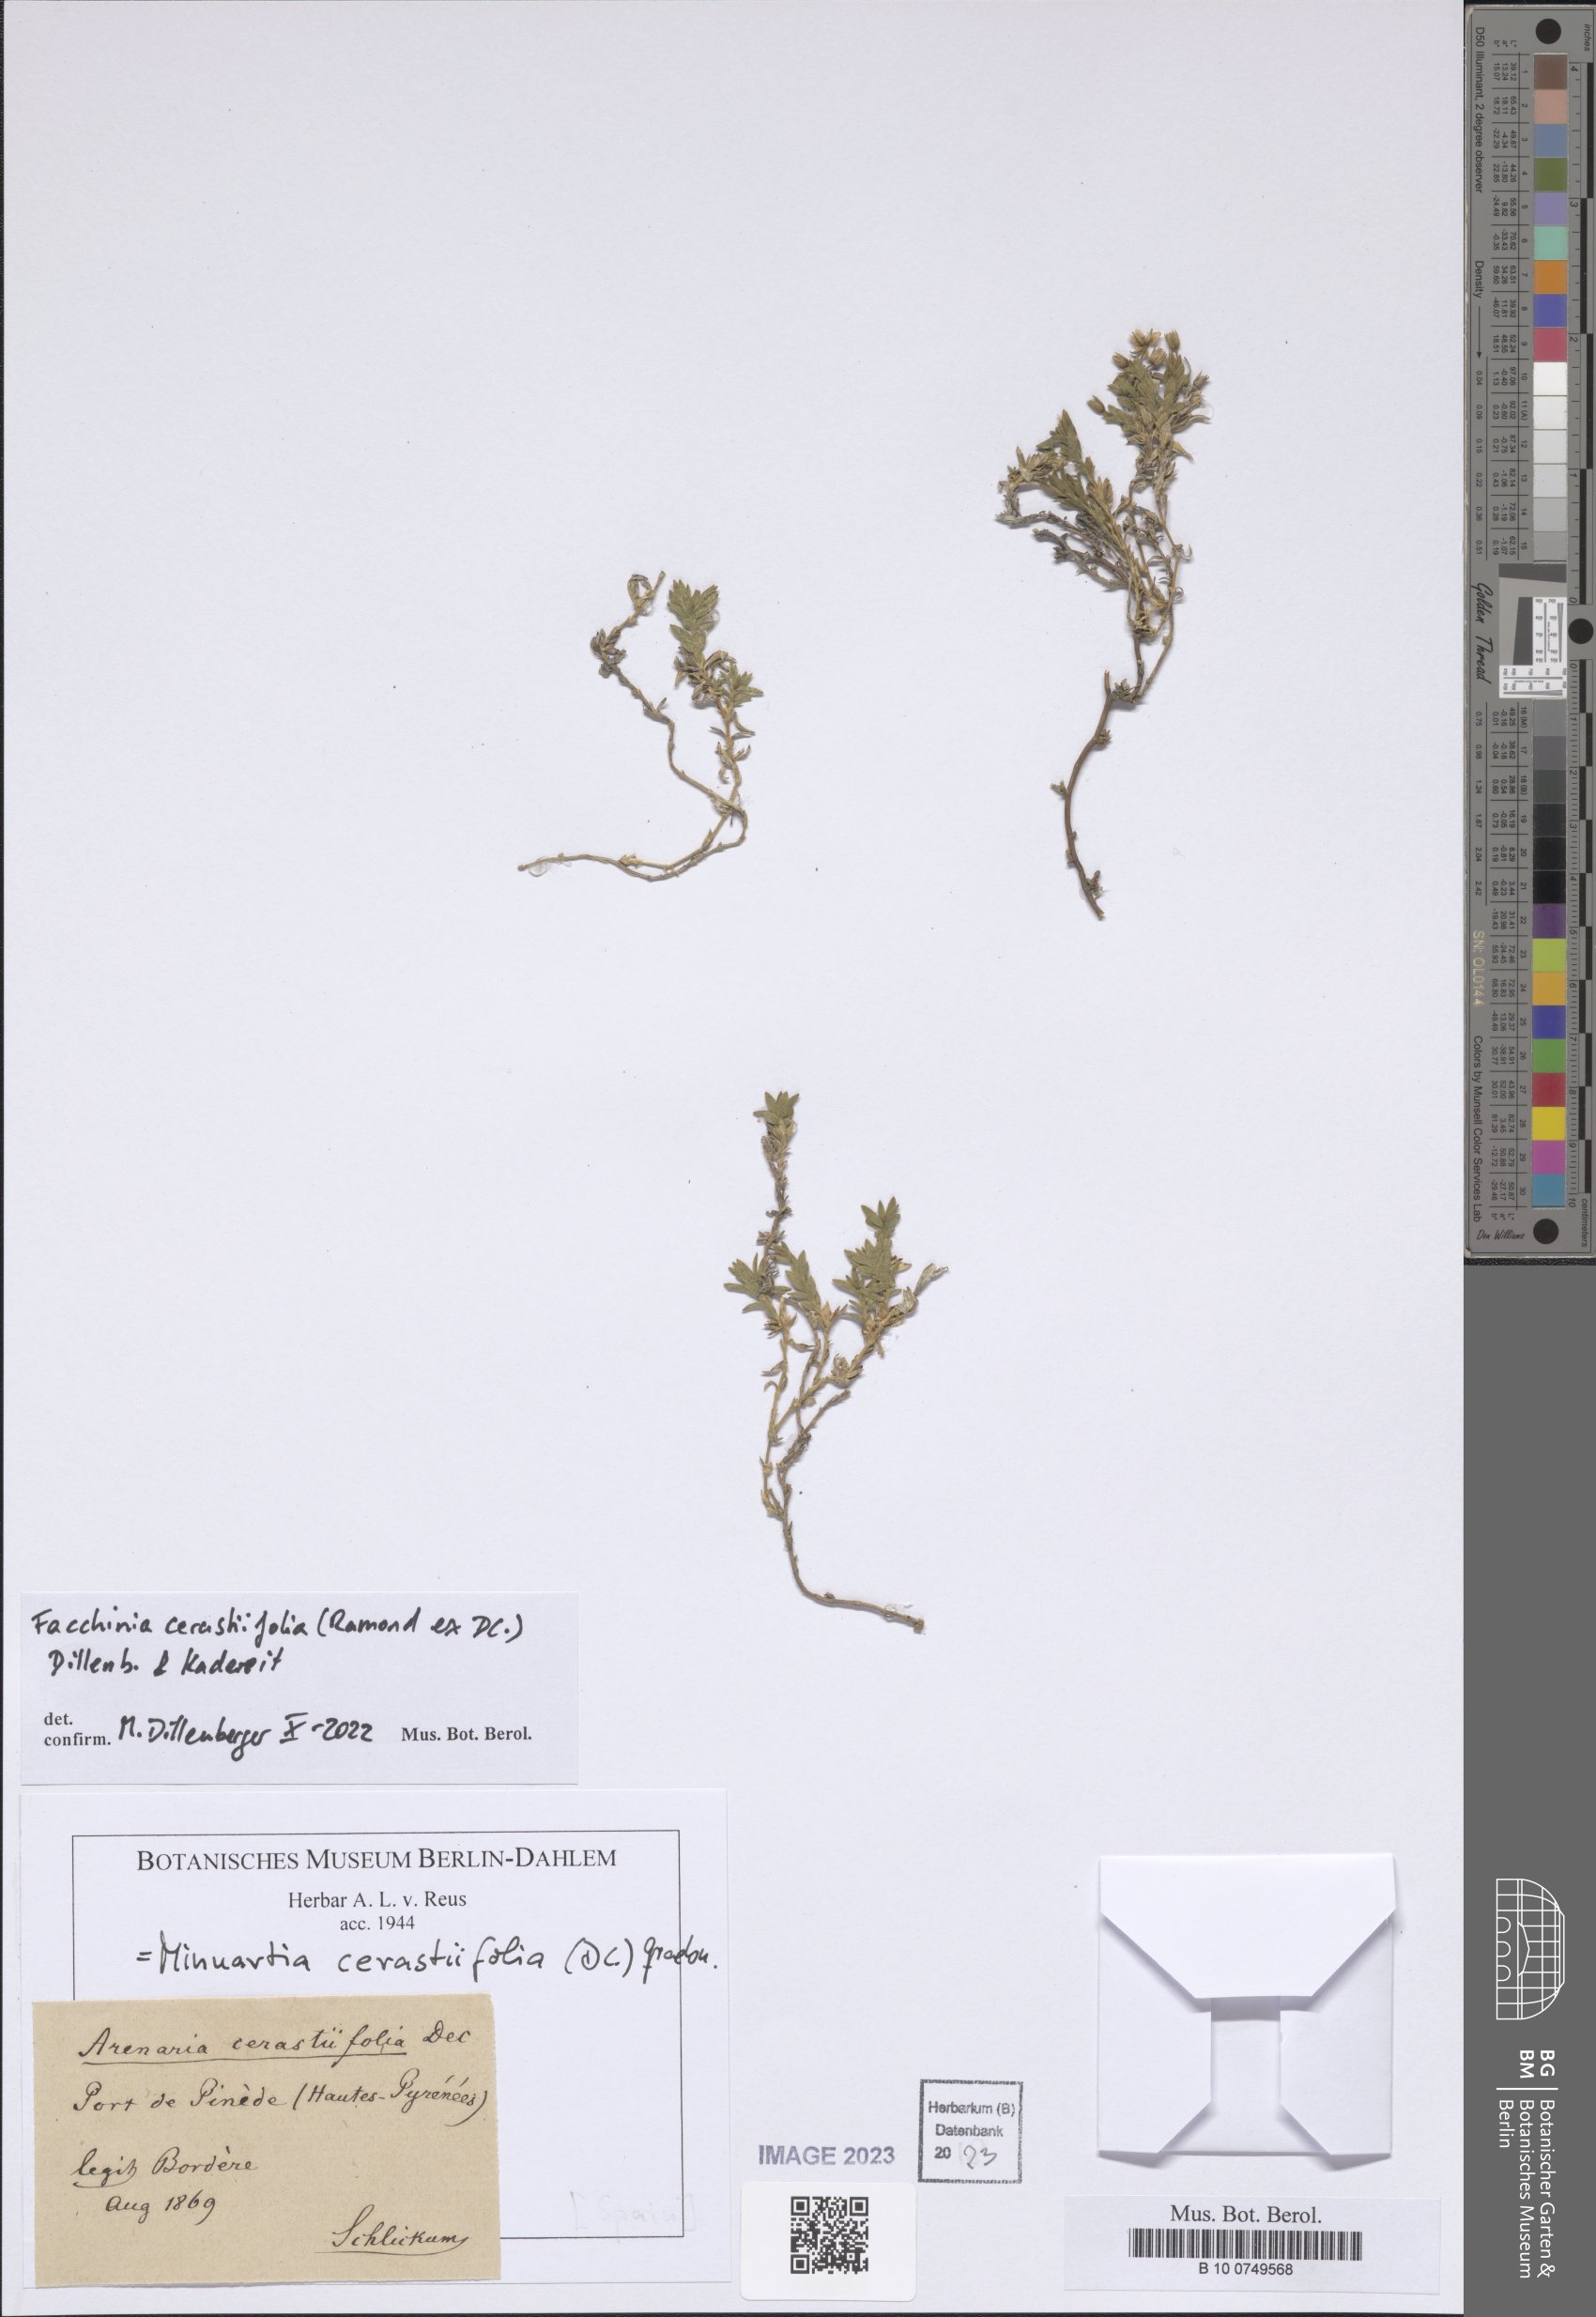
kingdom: Plantae
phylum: Tracheophyta
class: Magnoliopsida
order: Caryophyllales
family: Caryophyllaceae
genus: Facchinia
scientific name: Facchinia cerastiifolia
